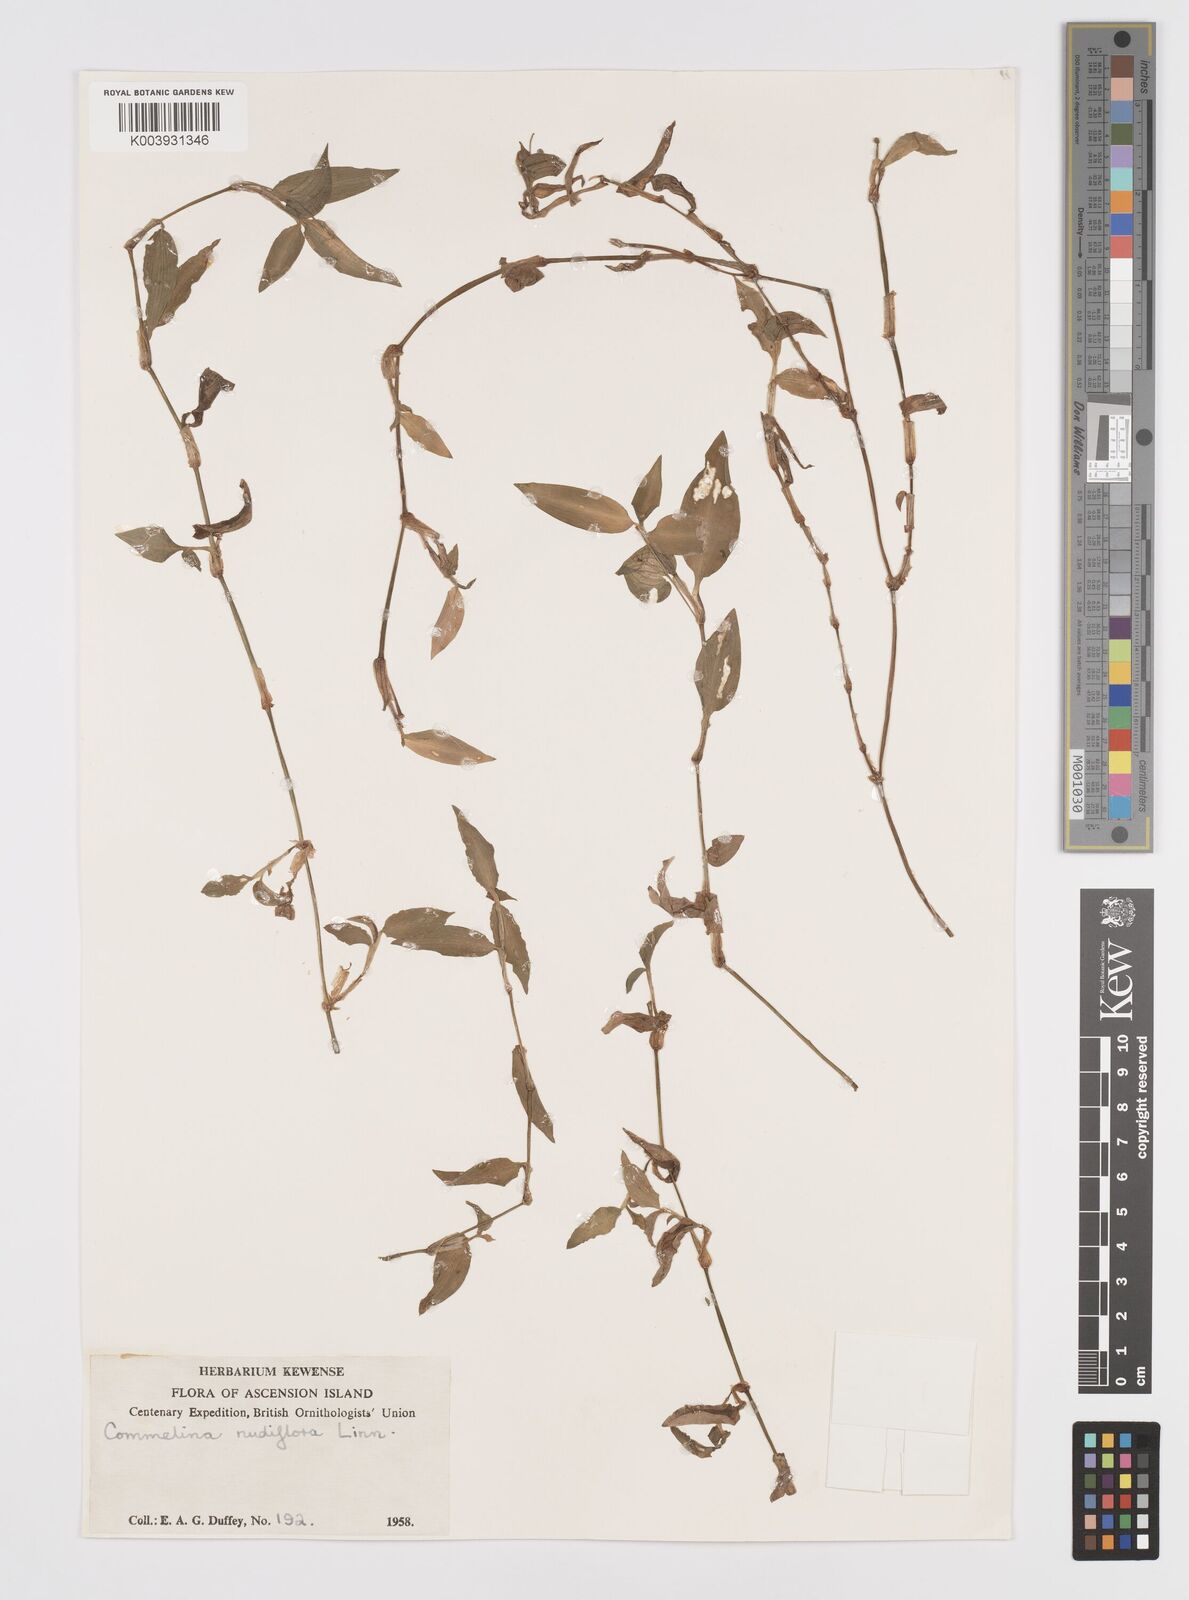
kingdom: Plantae
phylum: Tracheophyta
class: Liliopsida
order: Commelinales
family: Commelinaceae
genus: Murdannia
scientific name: Murdannia nudiflora
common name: Nakedstem dewflower
